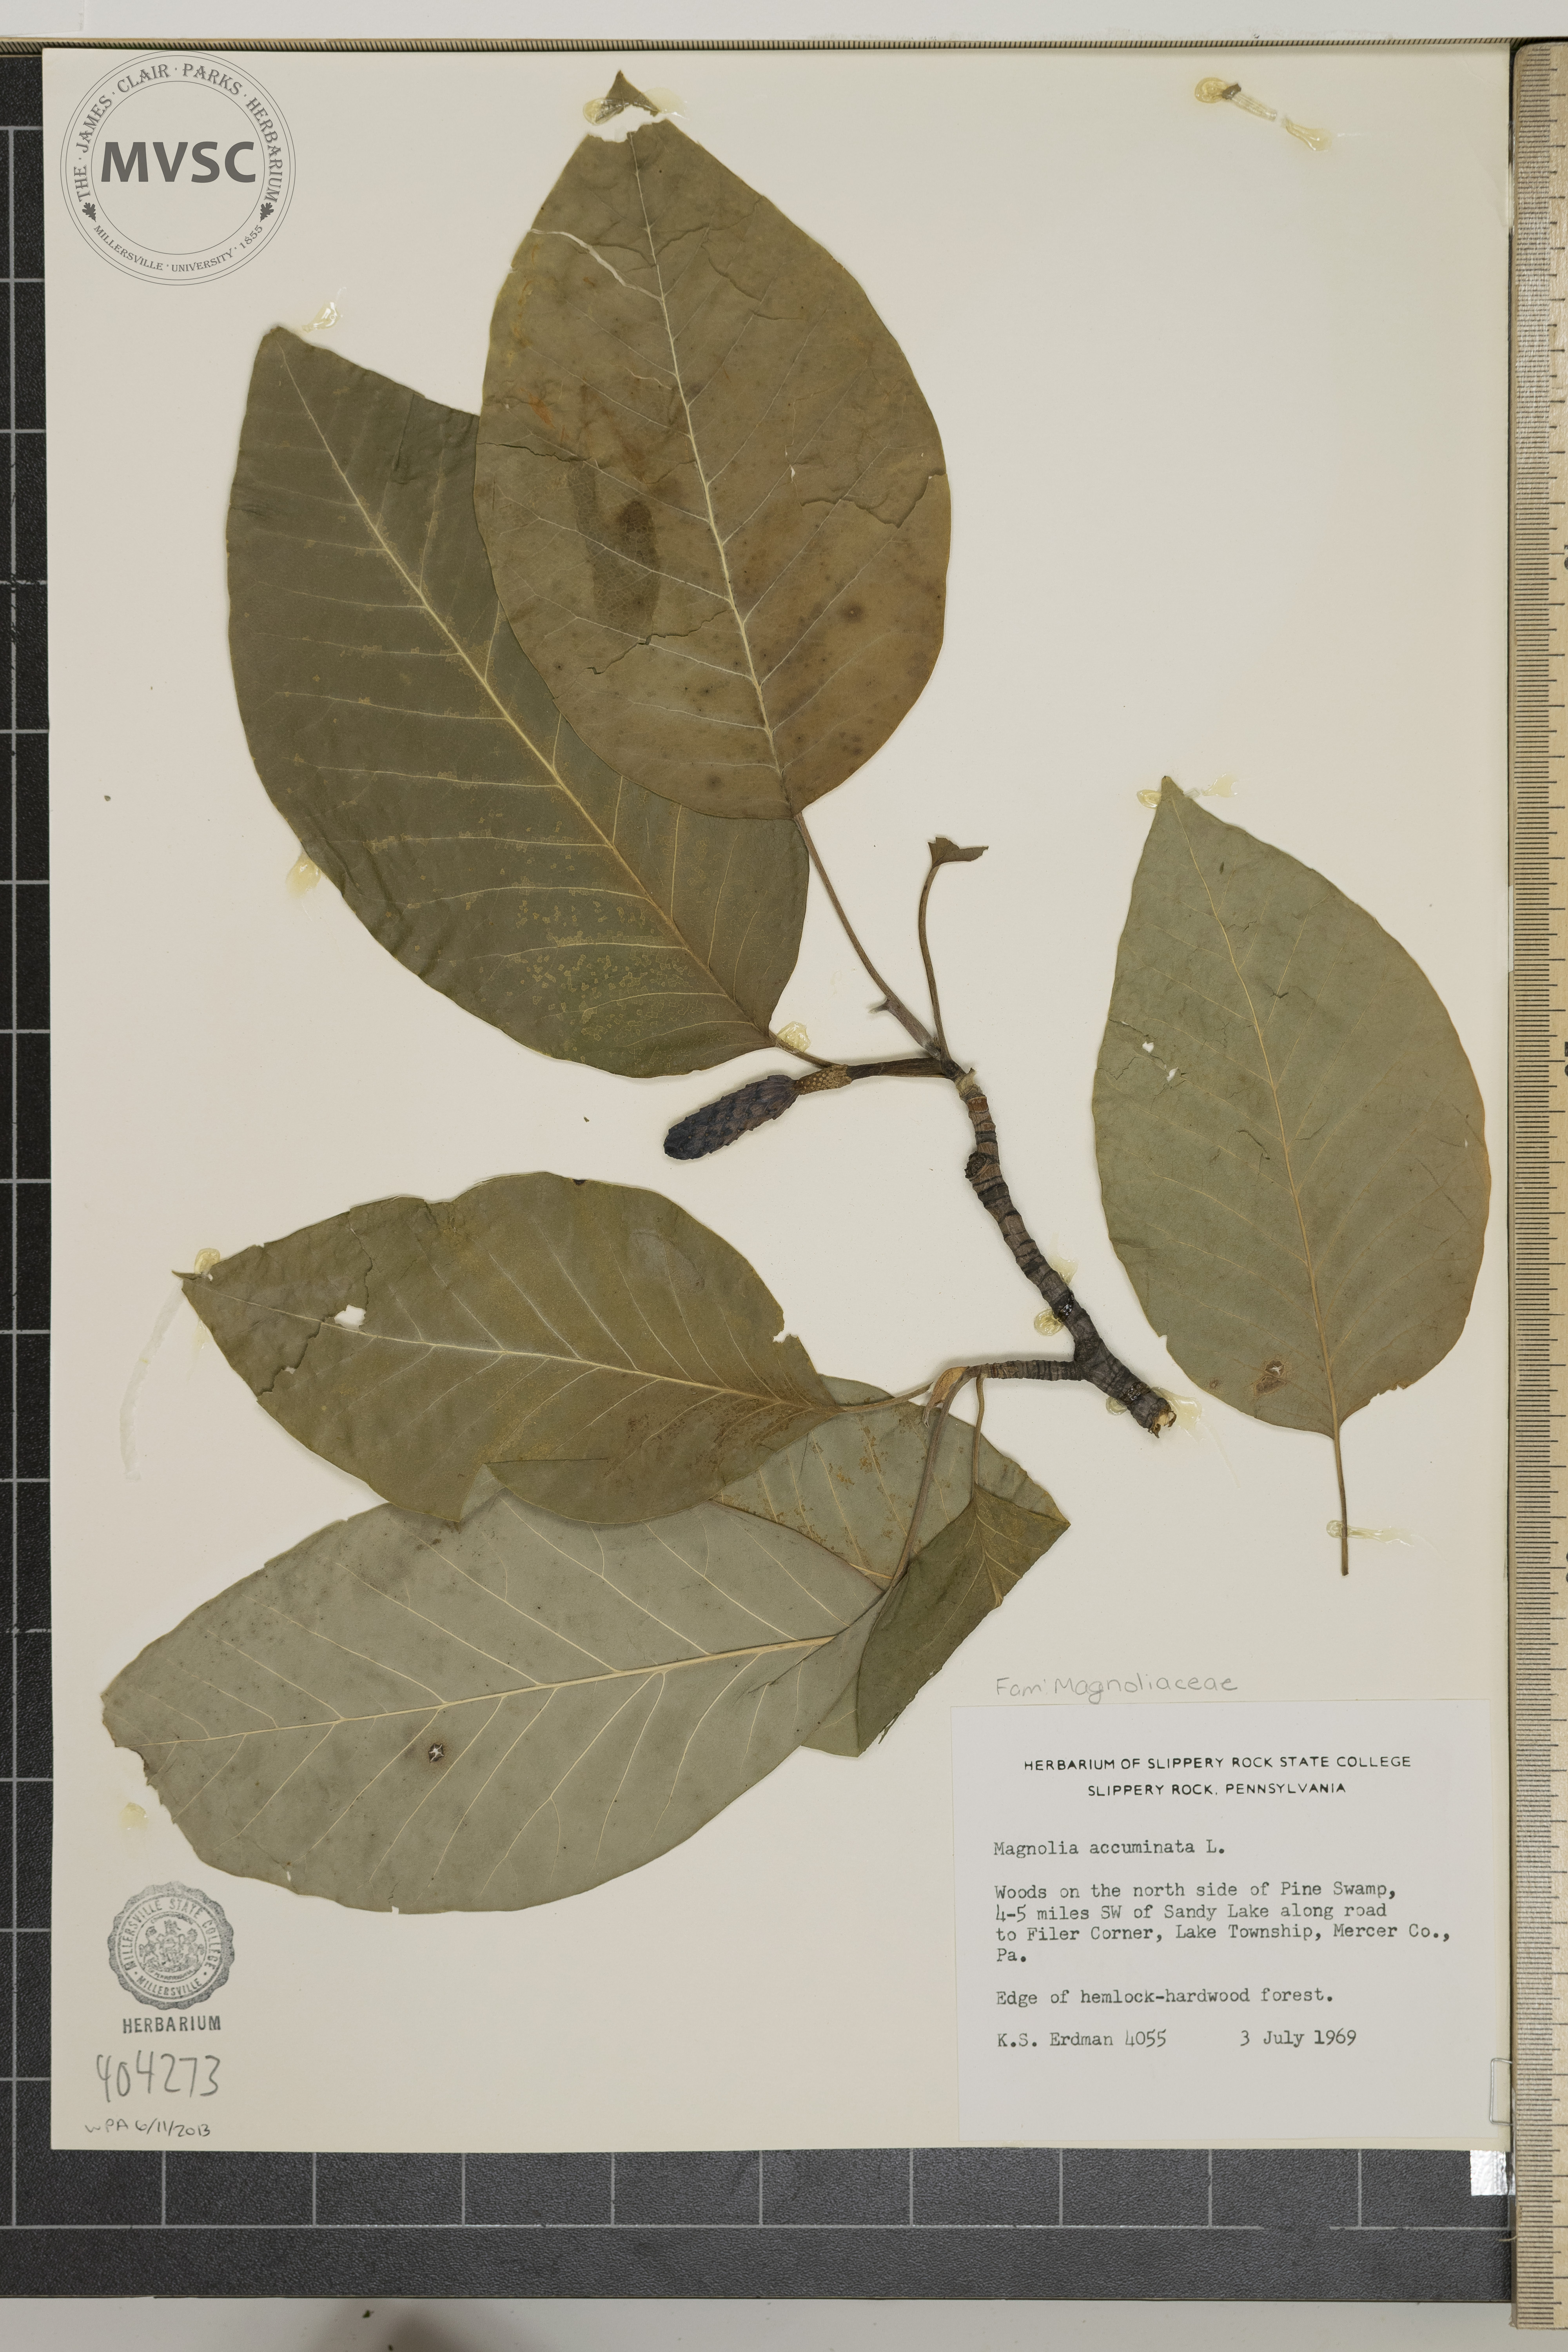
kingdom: Plantae
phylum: Tracheophyta
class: Magnoliopsida
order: Magnoliales
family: Magnoliaceae
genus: Magnolia
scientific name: Magnolia acuminata
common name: Cucumber magnolia
